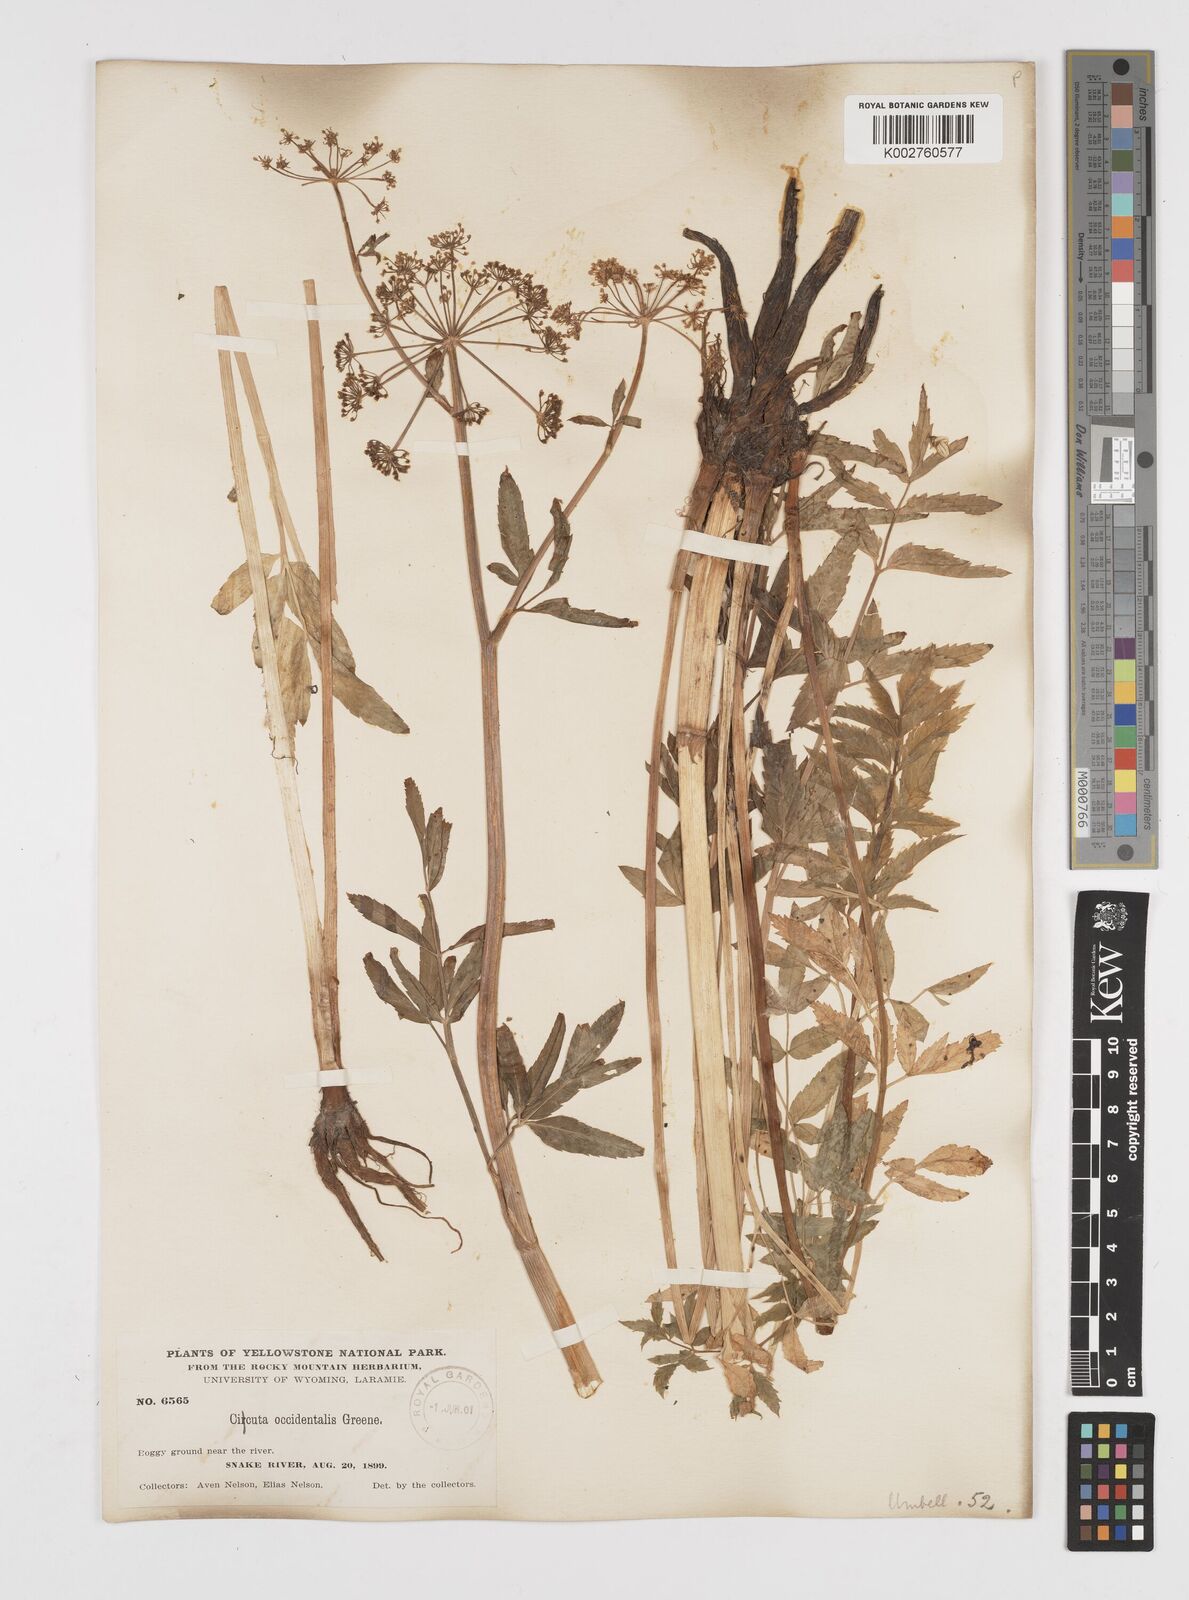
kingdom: Plantae
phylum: Tracheophyta
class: Magnoliopsida
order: Apiales
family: Apiaceae
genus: Cicuta
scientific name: Cicuta douglasii
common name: Western water-hemlock
